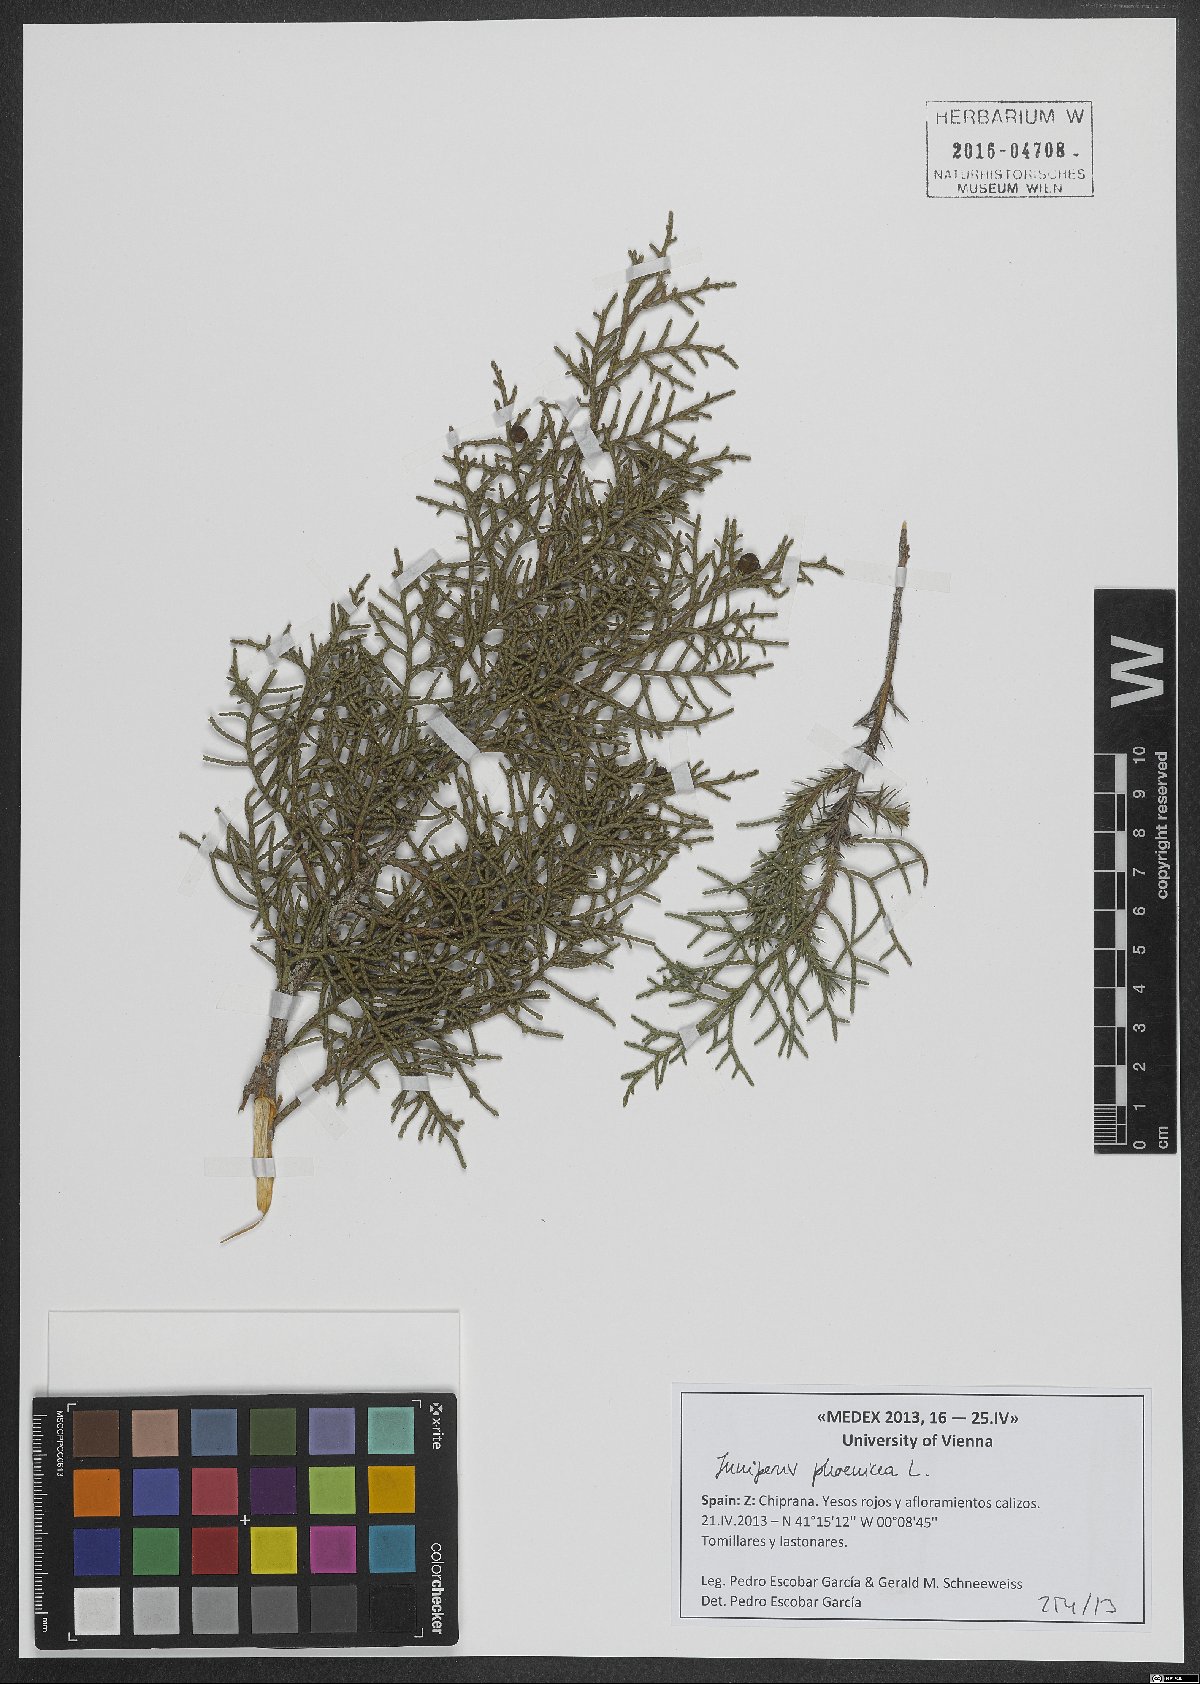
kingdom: Plantae
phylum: Tracheophyta
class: Pinopsida
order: Pinales
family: Cupressaceae
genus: Juniperus
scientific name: Juniperus phoenicea
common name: Phoenician juniper
